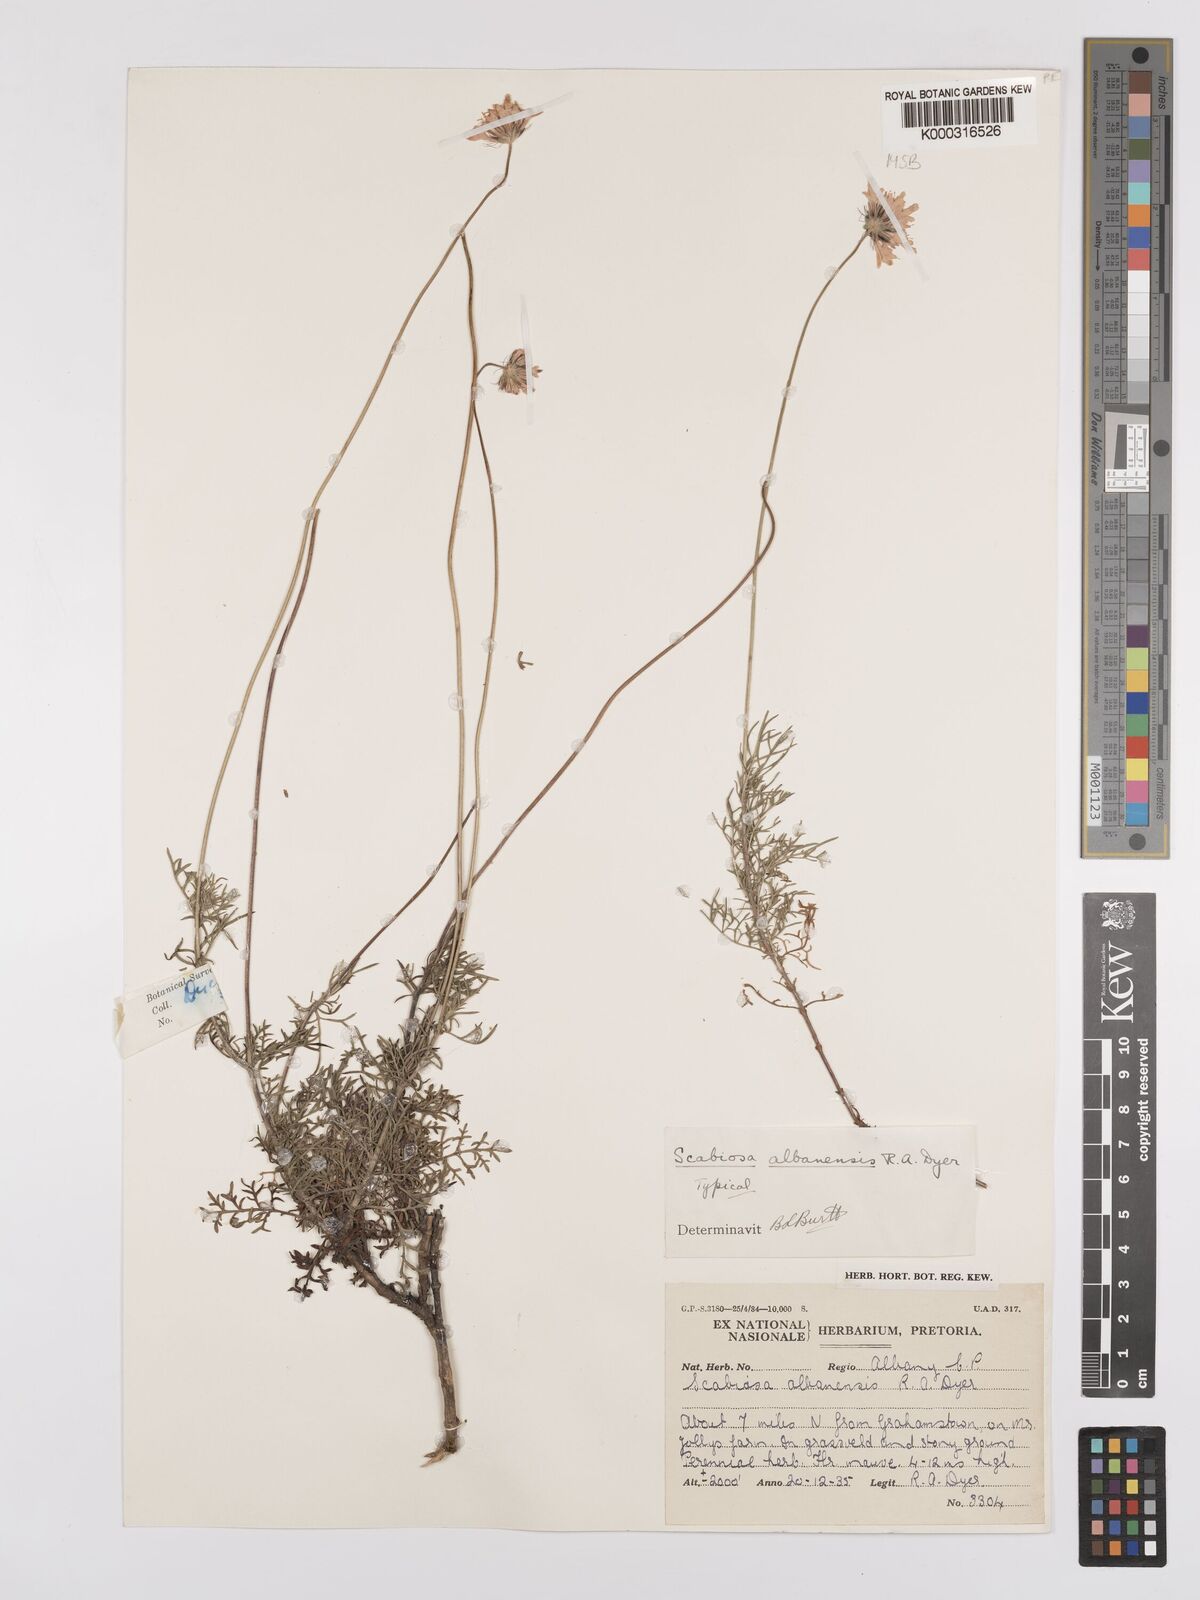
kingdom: Plantae
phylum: Tracheophyta
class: Magnoliopsida
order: Dipsacales
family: Caprifoliaceae
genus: Scabiosa
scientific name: Scabiosa albanensis
